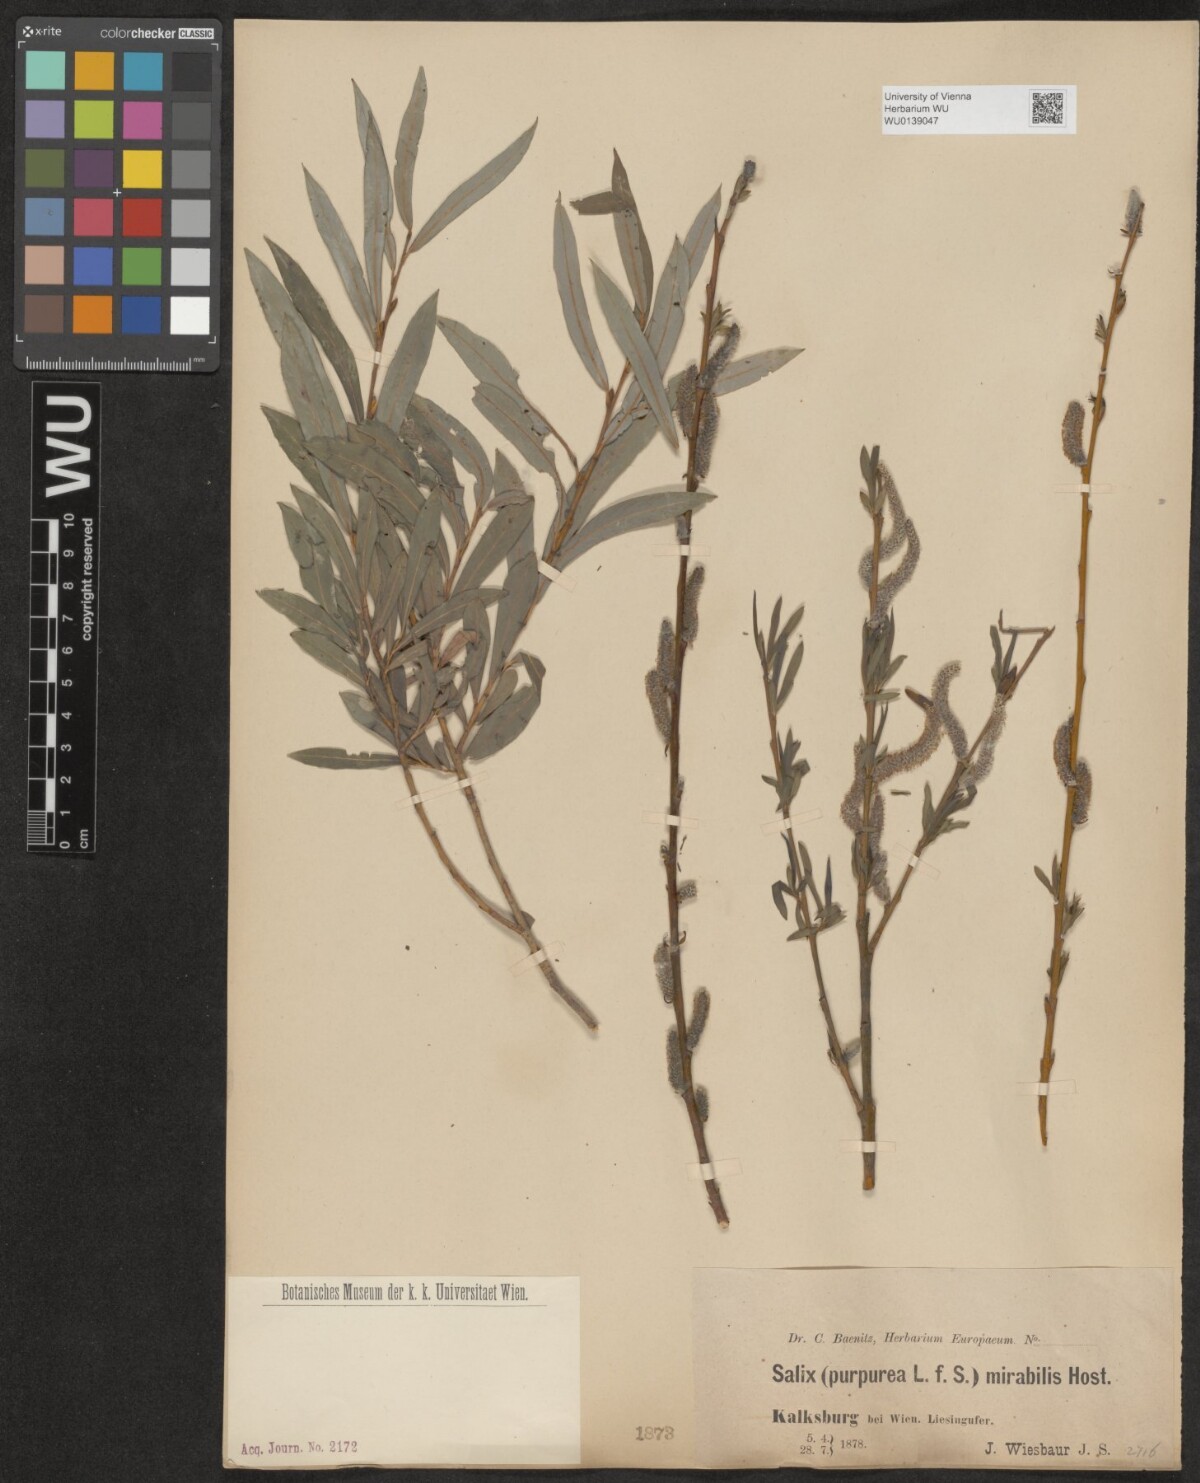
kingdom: Plantae
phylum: Tracheophyta
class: Magnoliopsida
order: Malpighiales
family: Salicaceae
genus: Salix
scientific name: Salix purpurea
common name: Purple willow
